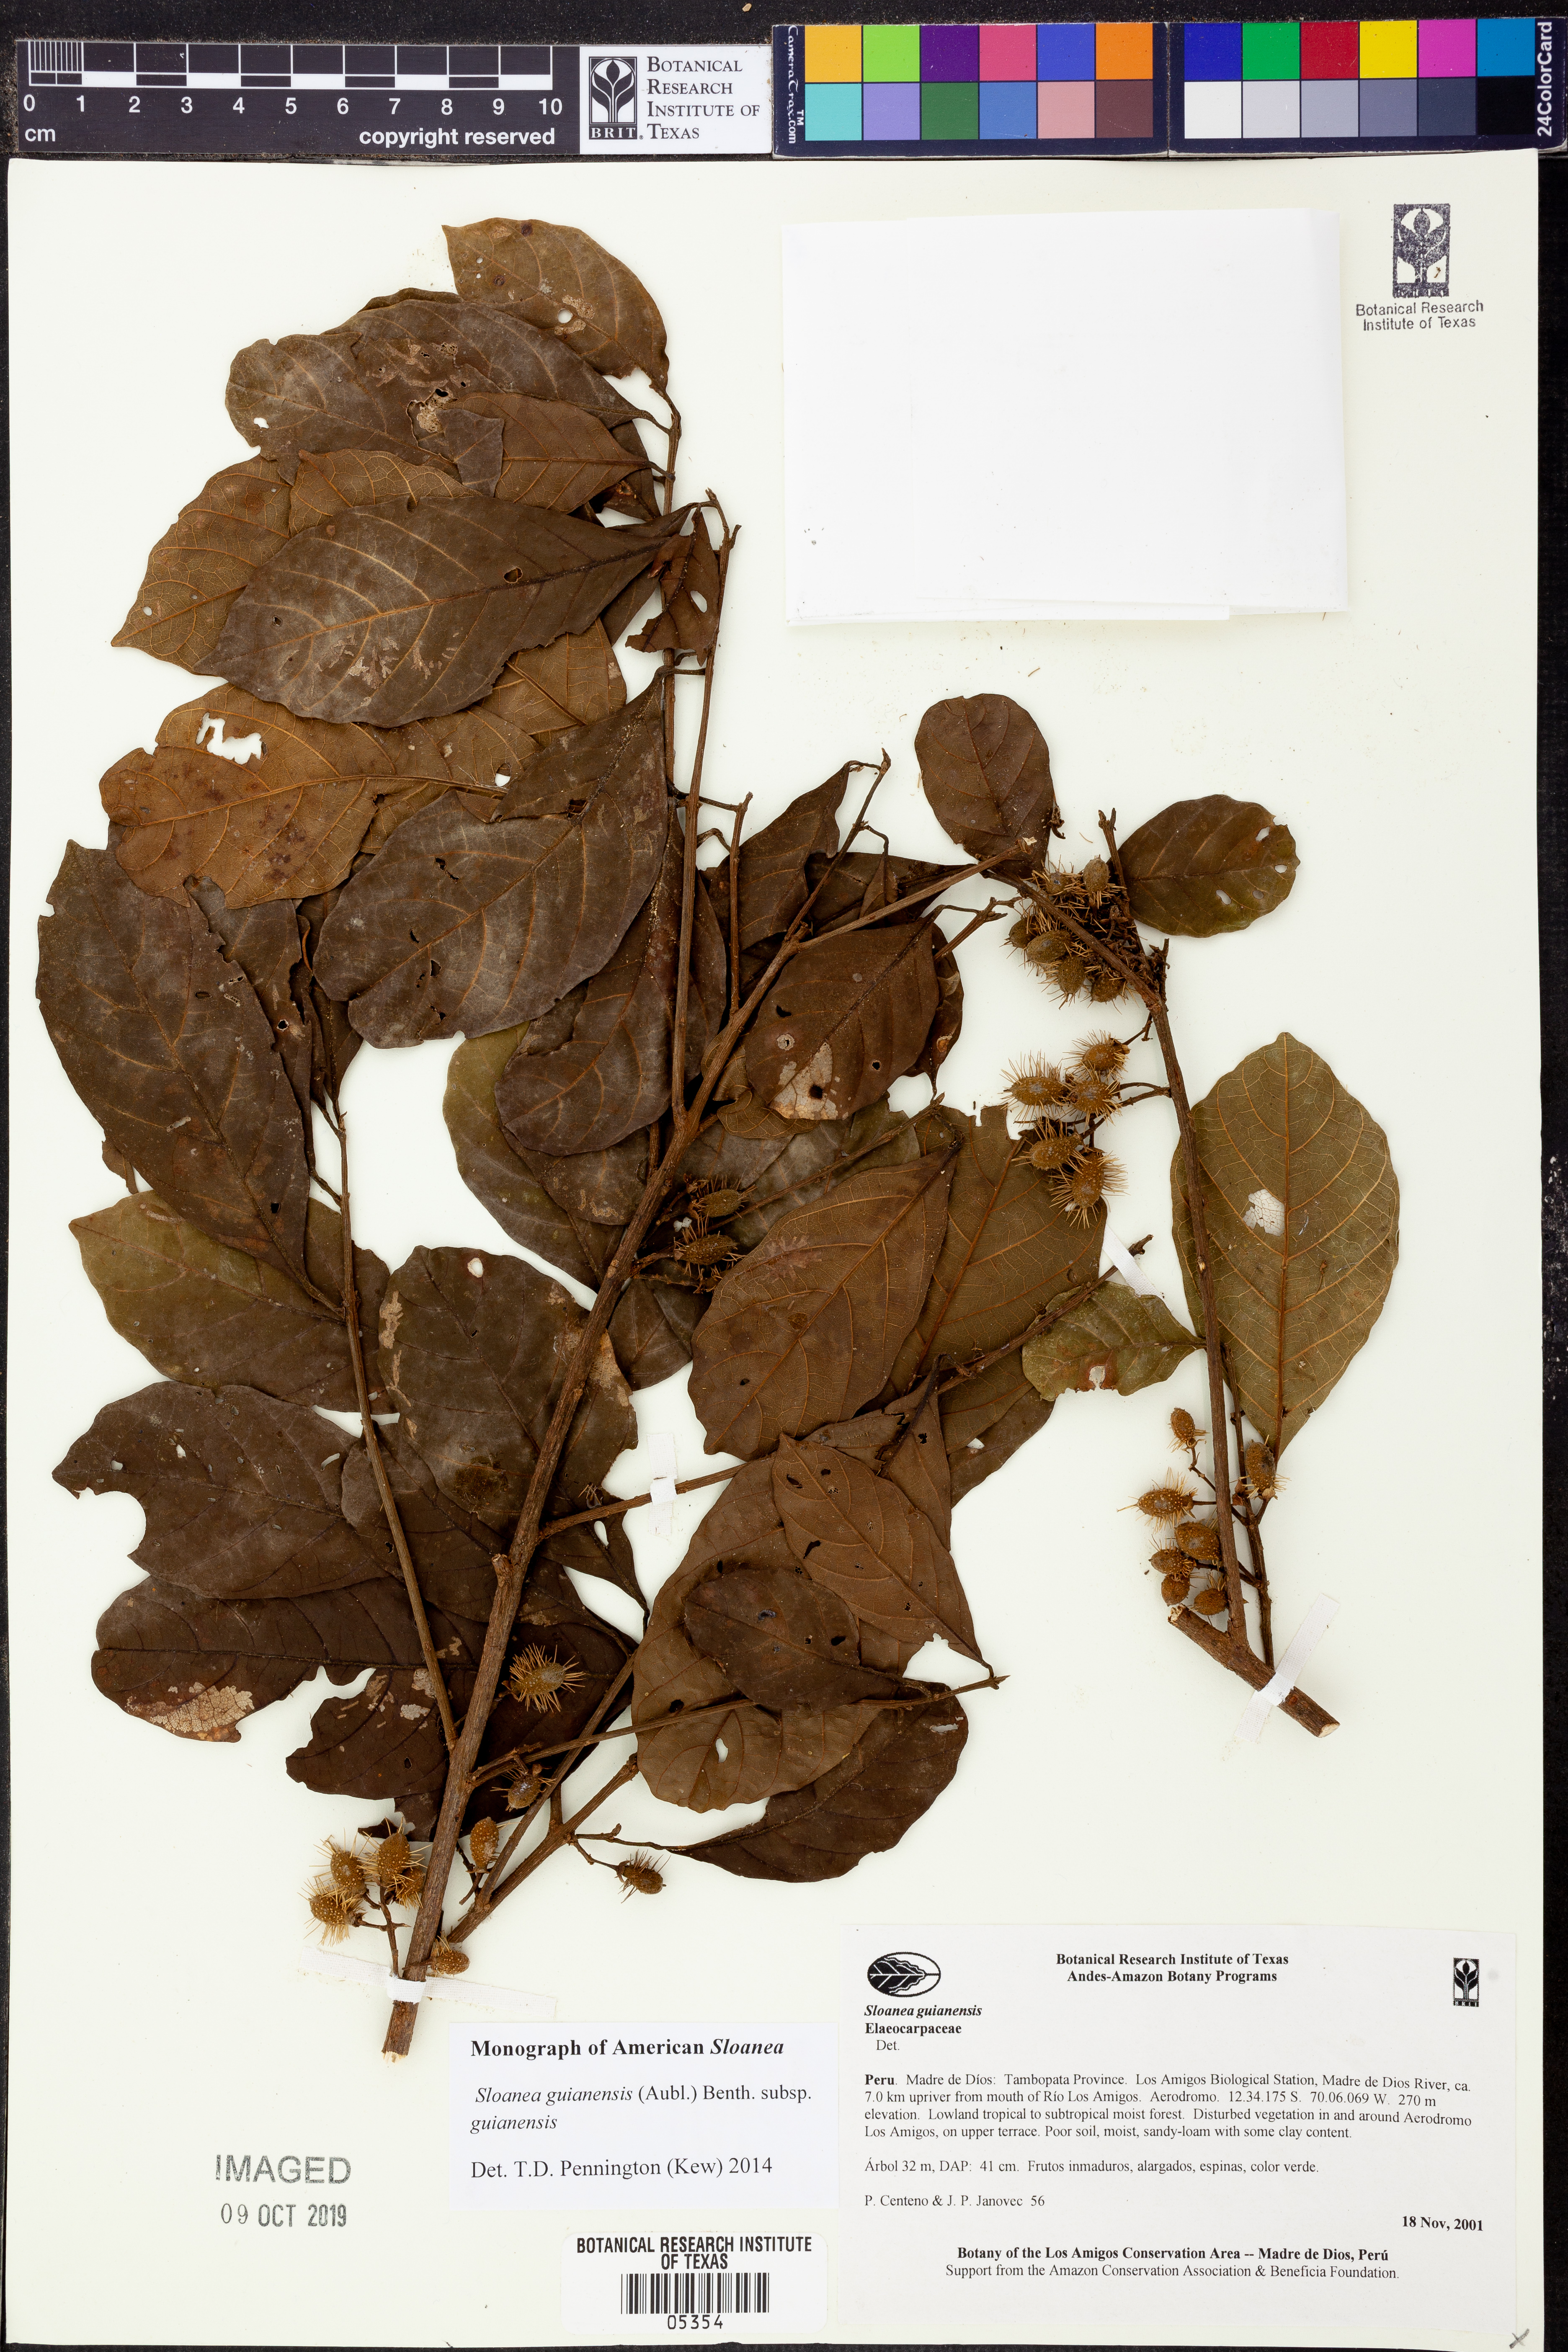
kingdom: Plantae
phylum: Tracheophyta
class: Magnoliopsida
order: Oxalidales
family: Elaeocarpaceae
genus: Sloanea
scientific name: Sloanea
